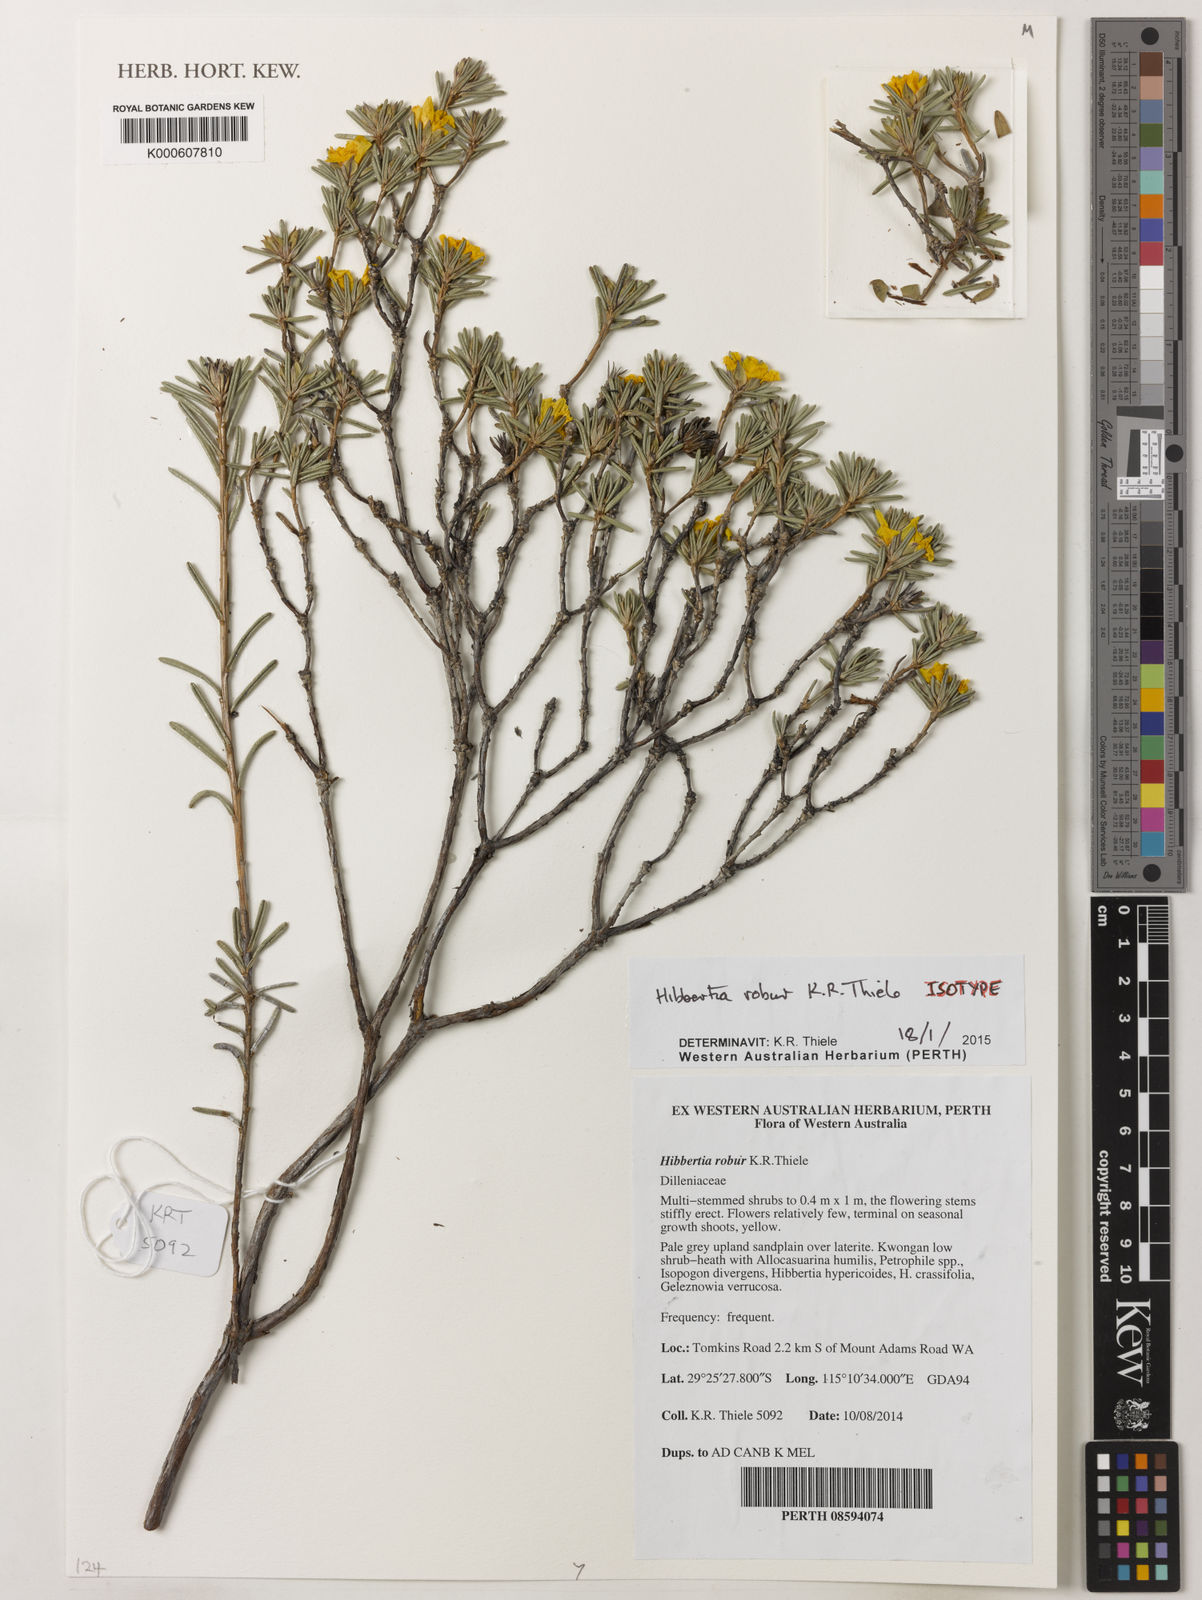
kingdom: Plantae
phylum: Tracheophyta
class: Magnoliopsida
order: Dilleniales
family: Dilleniaceae
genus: Hibbertia
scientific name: Hibbertia robur
